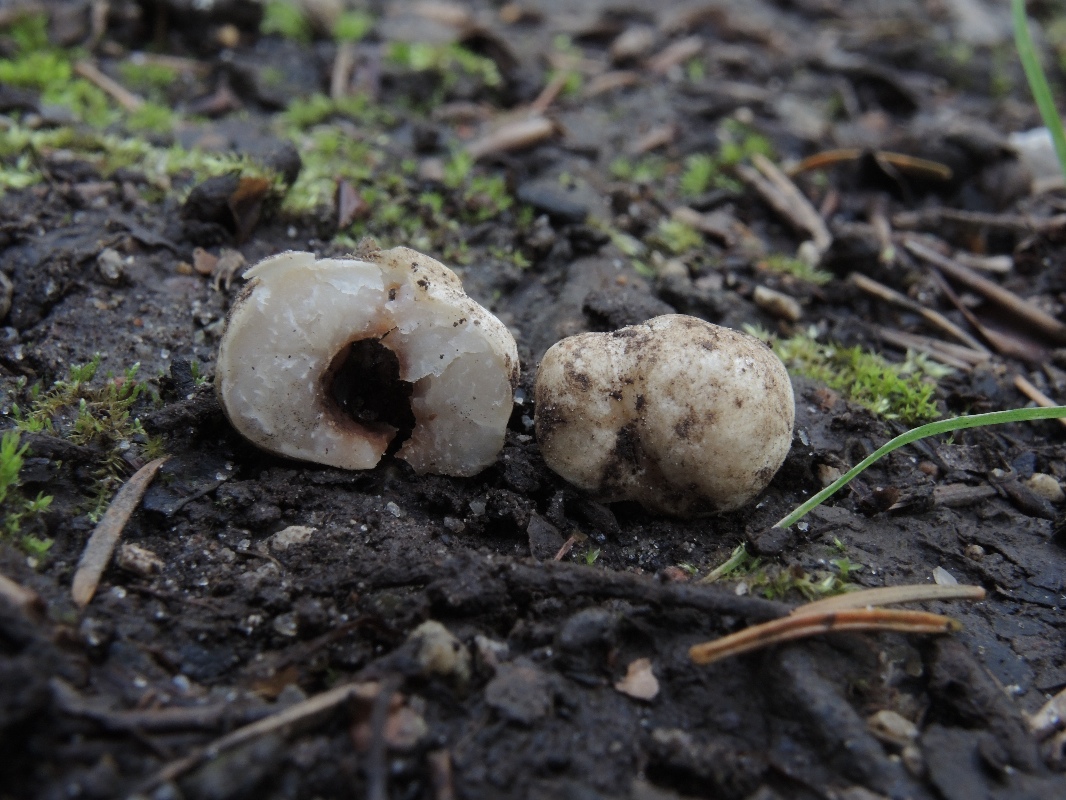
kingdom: Fungi
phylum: Ascomycota
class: Pezizomycetes
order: Pezizales
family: Tuberaceae
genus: Tuber
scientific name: Tuber
